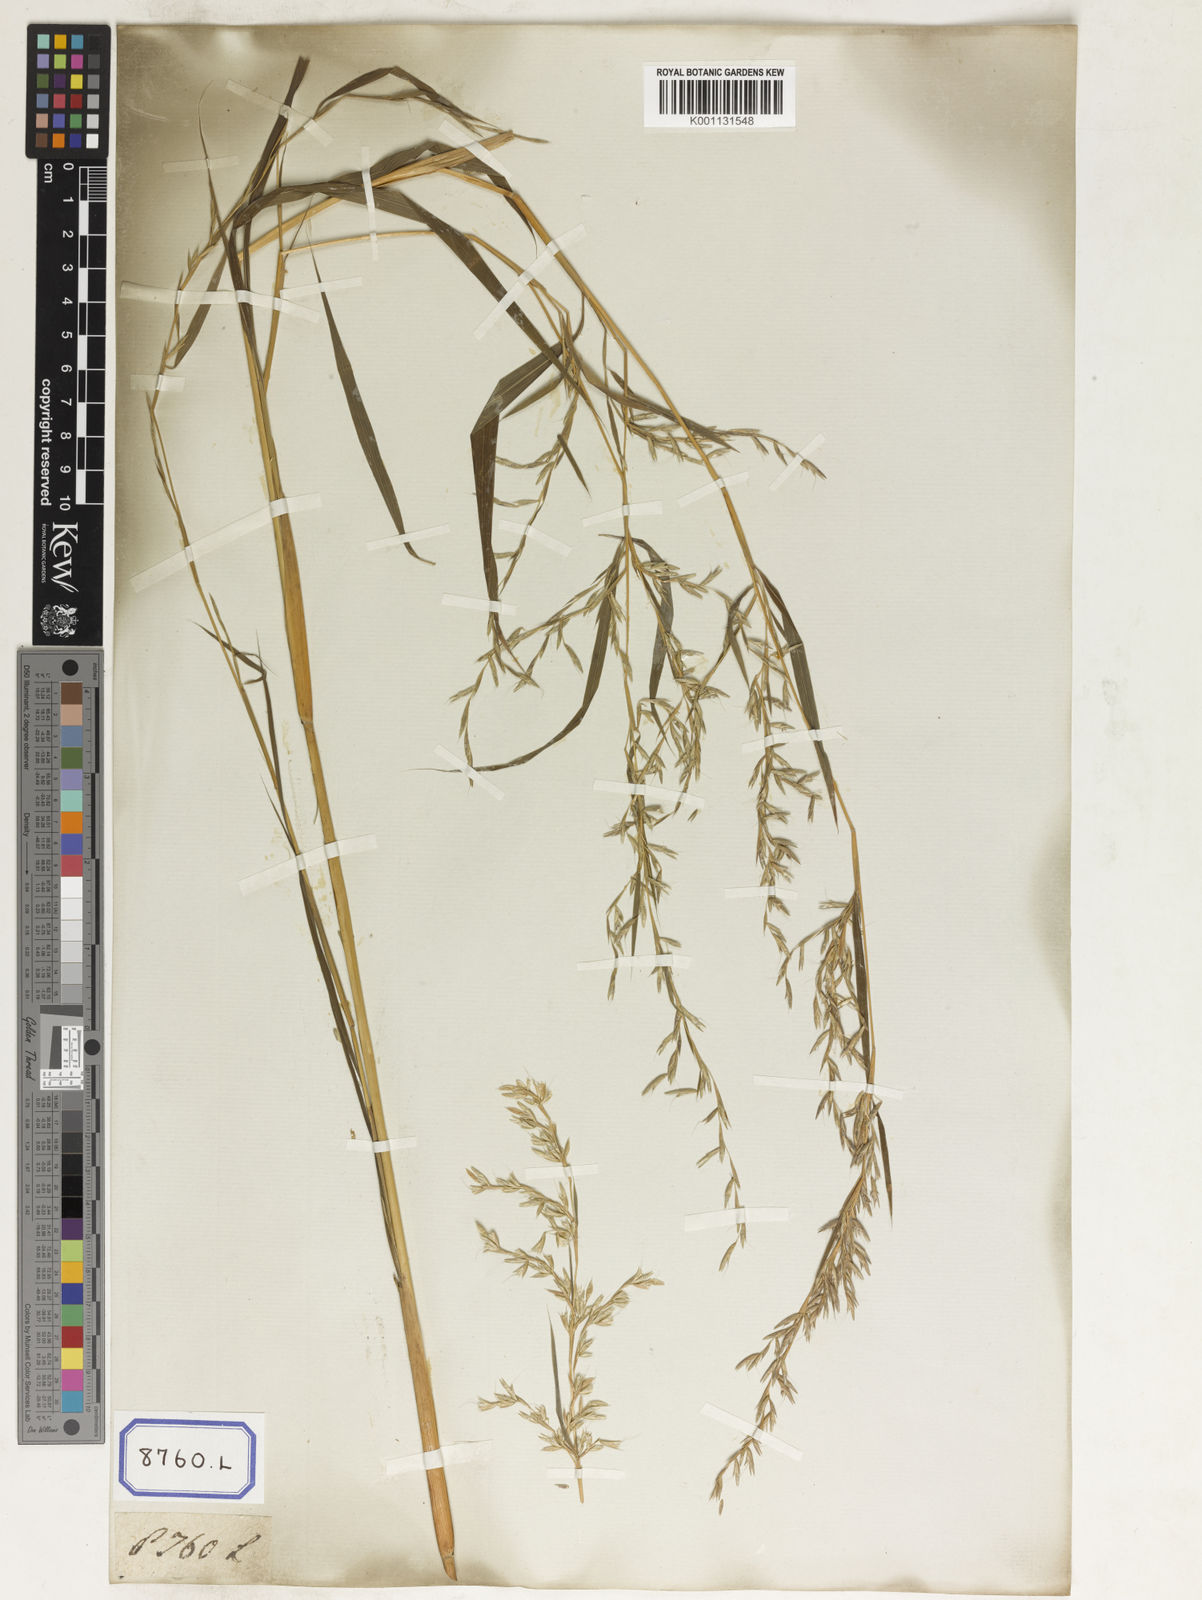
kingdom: Plantae
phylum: Tracheophyta
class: Liliopsida
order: Poales
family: Poaceae
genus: Apluda
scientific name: Apluda
